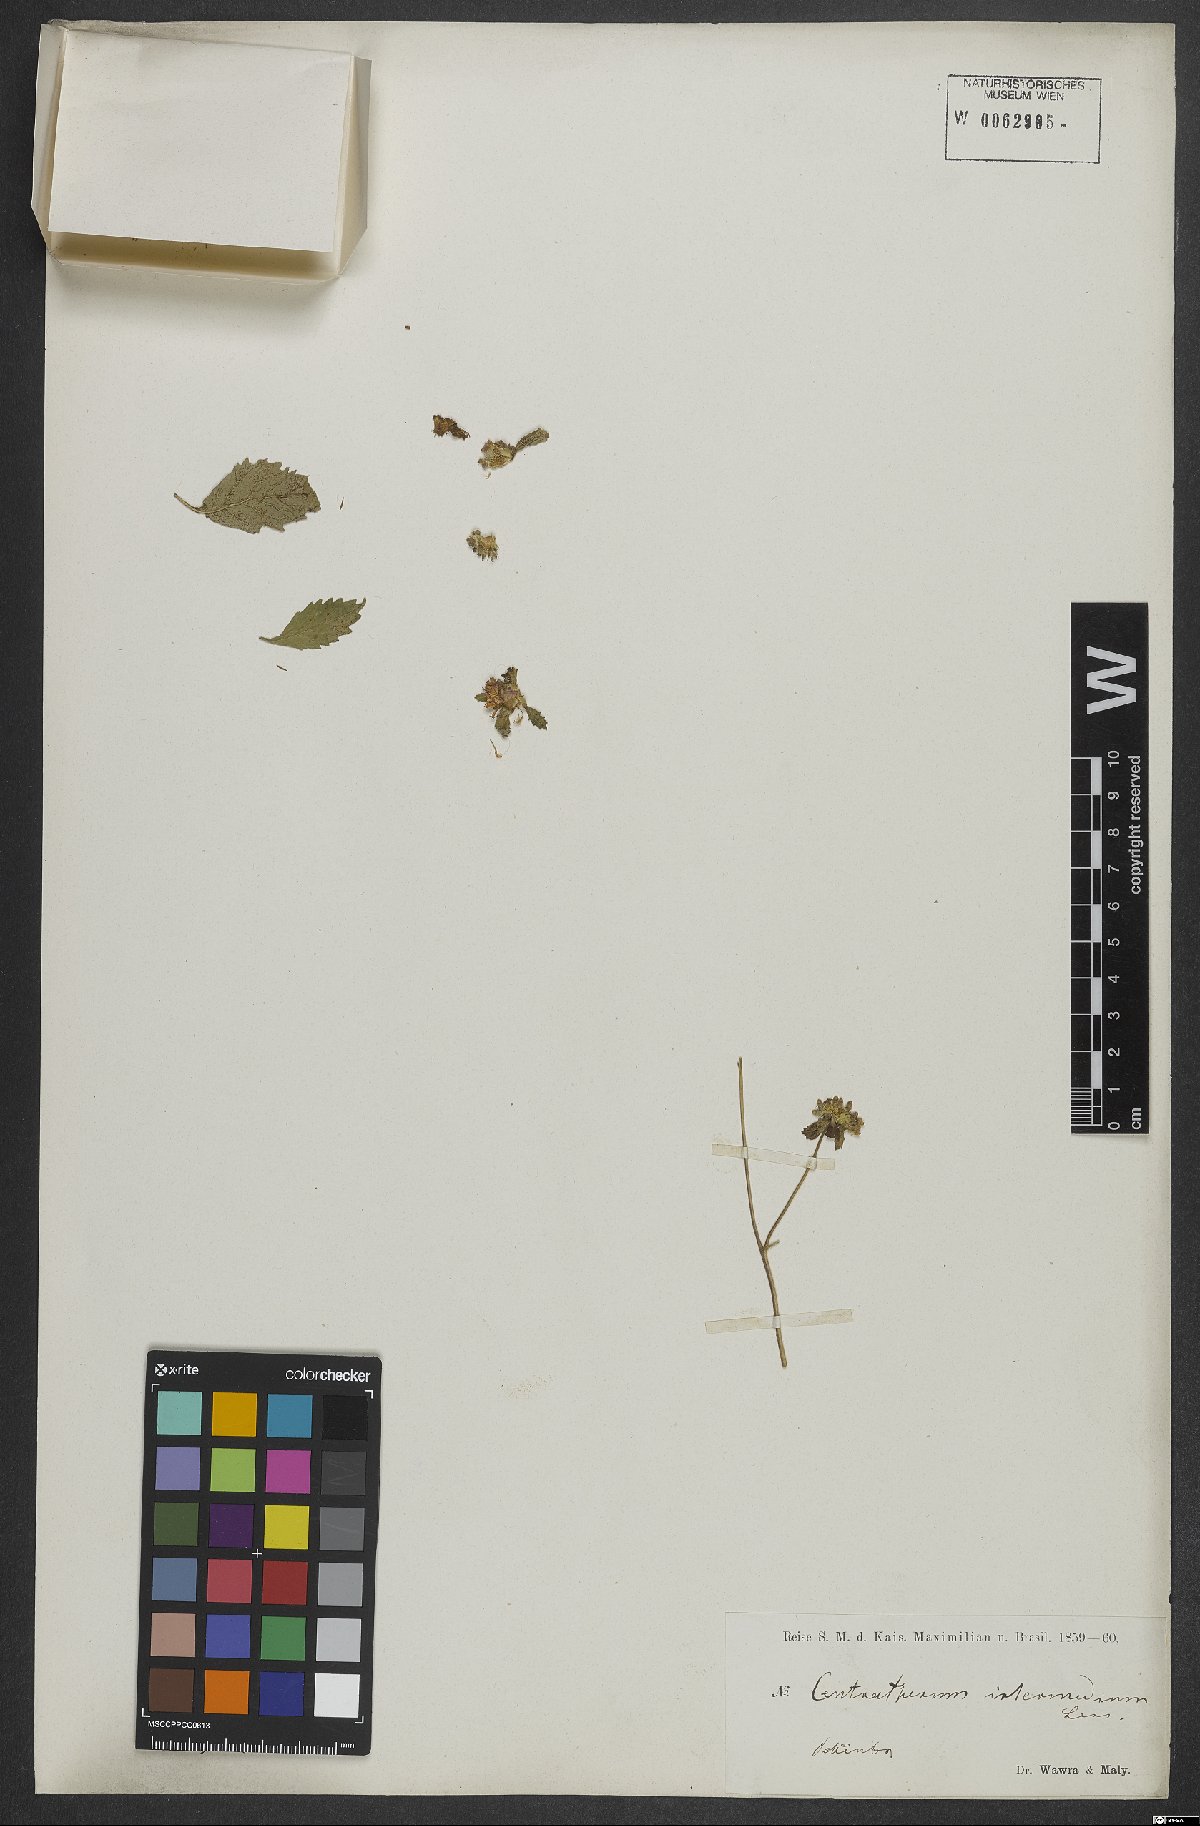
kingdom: Plantae
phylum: Tracheophyta
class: Magnoliopsida
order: Asterales
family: Asteraceae
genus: Centratherum
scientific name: Centratherum punctatum
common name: Larkdaisy
